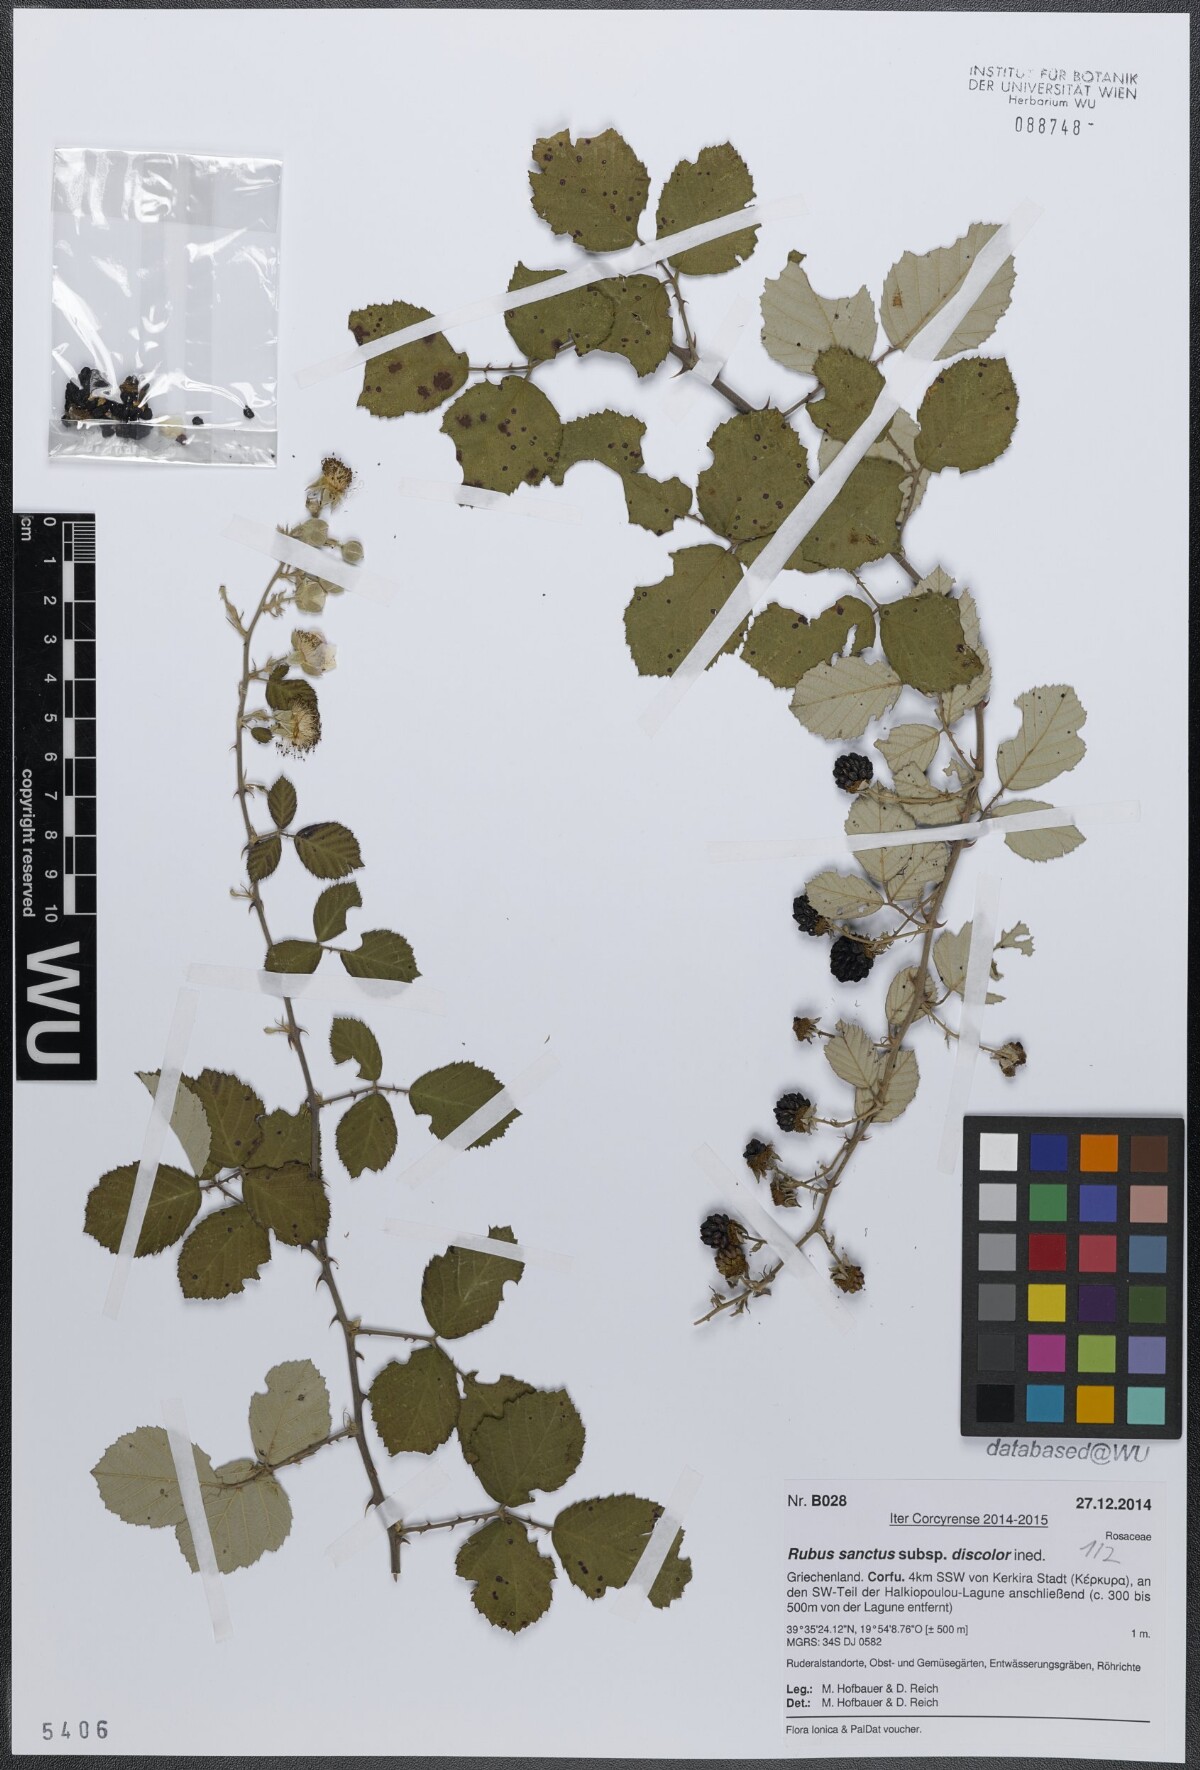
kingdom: Plantae
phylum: Tracheophyta
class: Magnoliopsida
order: Rosales
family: Rosaceae
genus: Rubus
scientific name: Rubus sanctus
